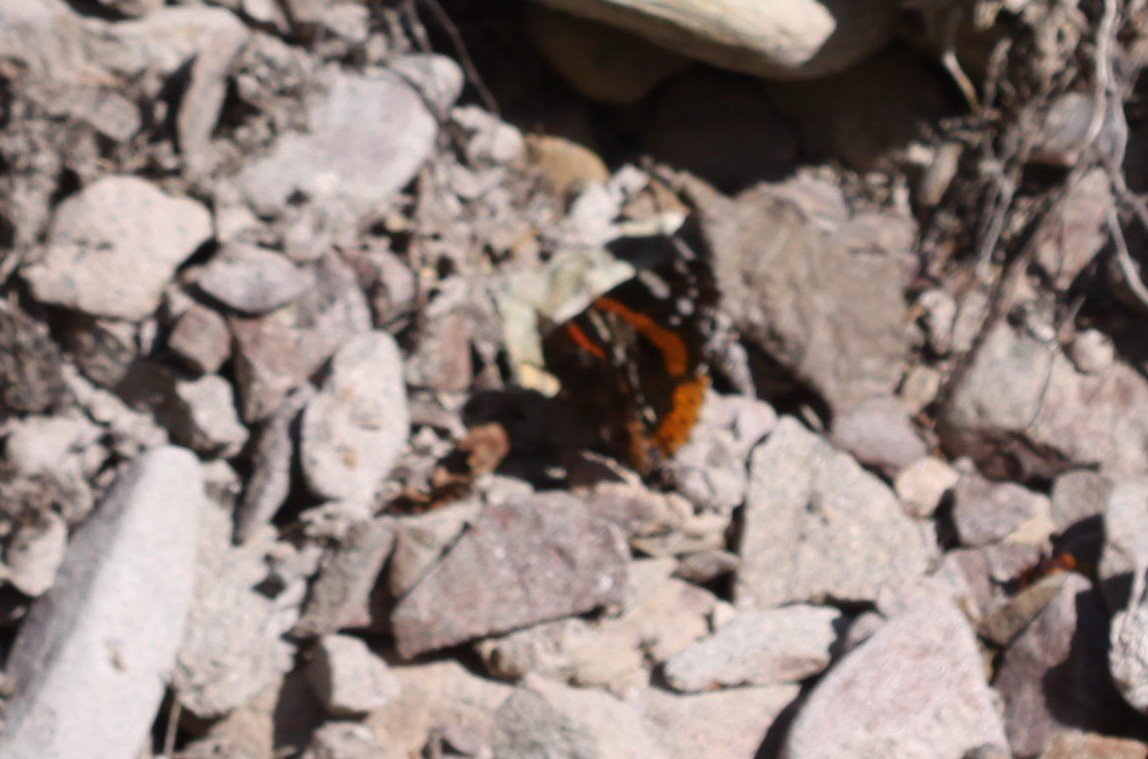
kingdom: Animalia
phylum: Arthropoda
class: Insecta
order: Lepidoptera
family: Nymphalidae
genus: Vanessa
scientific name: Vanessa atalanta
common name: Red Admiral
